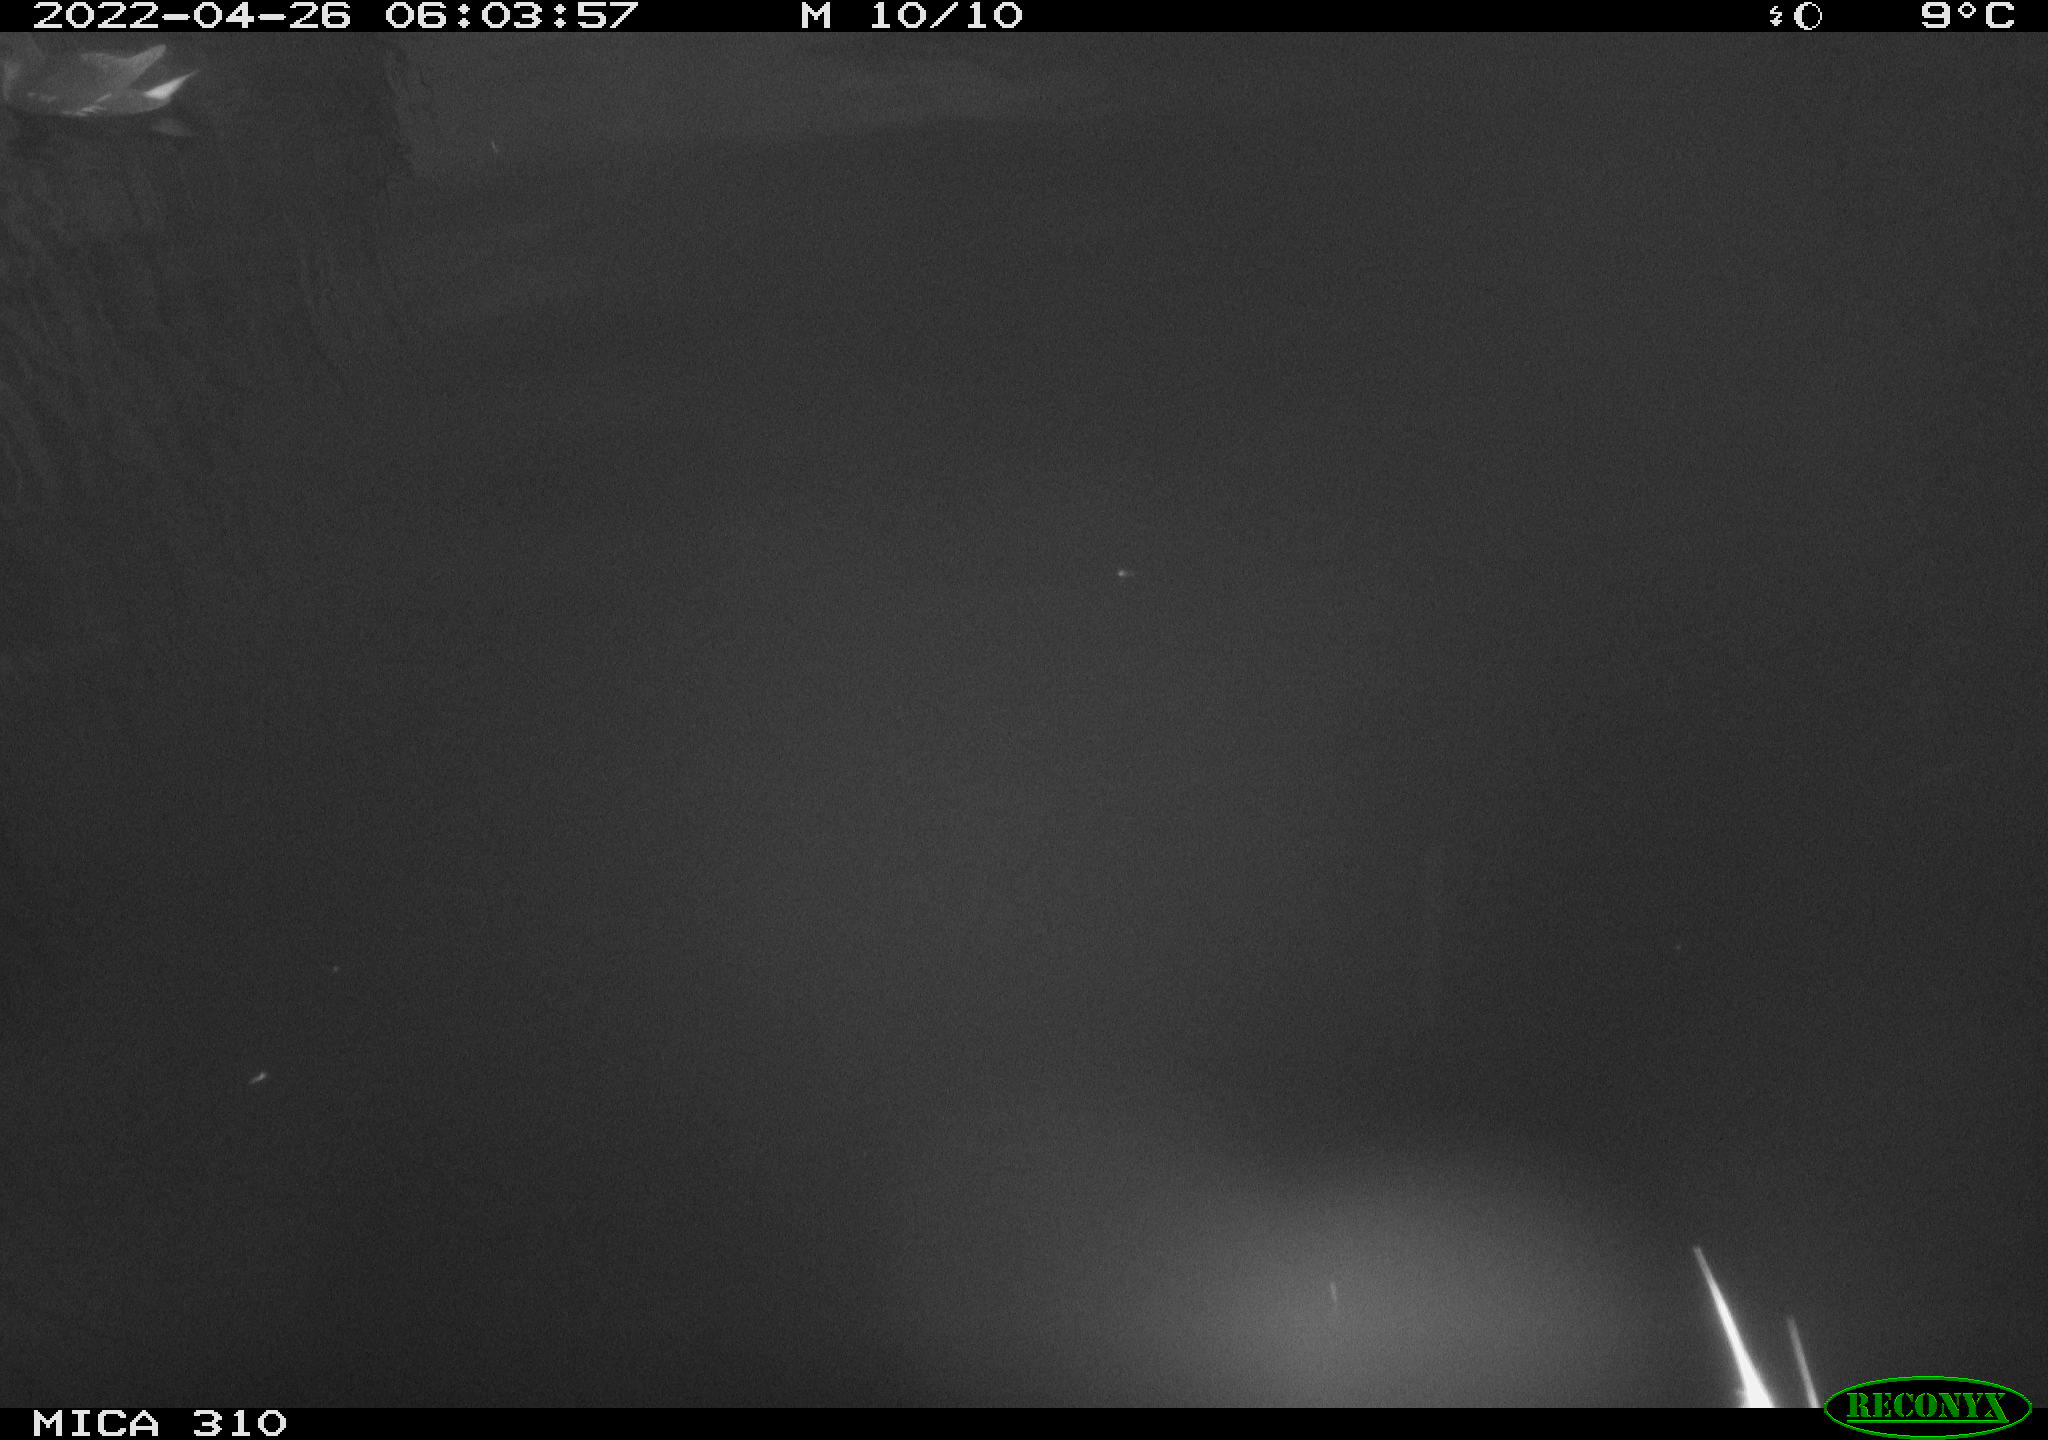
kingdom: Animalia
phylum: Chordata
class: Aves
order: Gruiformes
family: Rallidae
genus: Gallinula
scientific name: Gallinula chloropus
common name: Common moorhen
